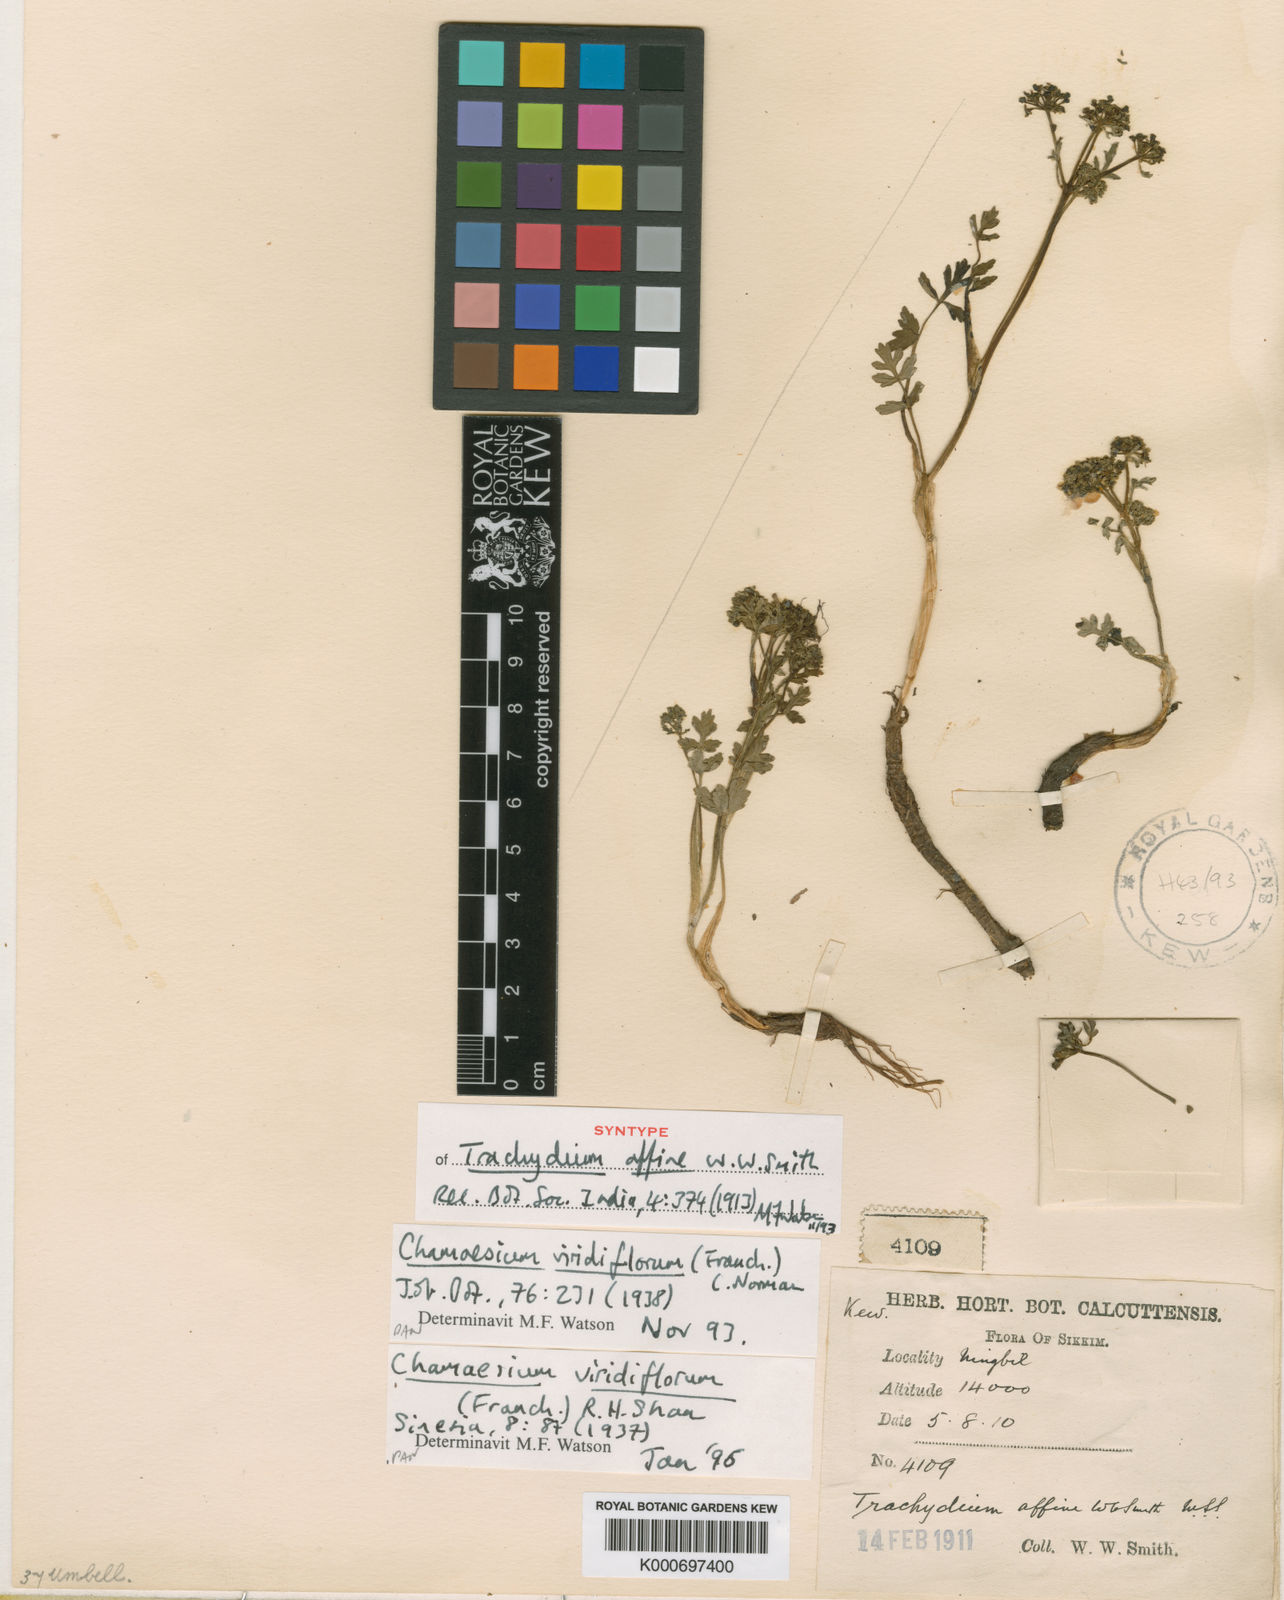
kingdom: Plantae
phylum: Tracheophyta
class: Magnoliopsida
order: Apiales
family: Apiaceae
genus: Chamaesium
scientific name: Chamaesium viridiflorum
